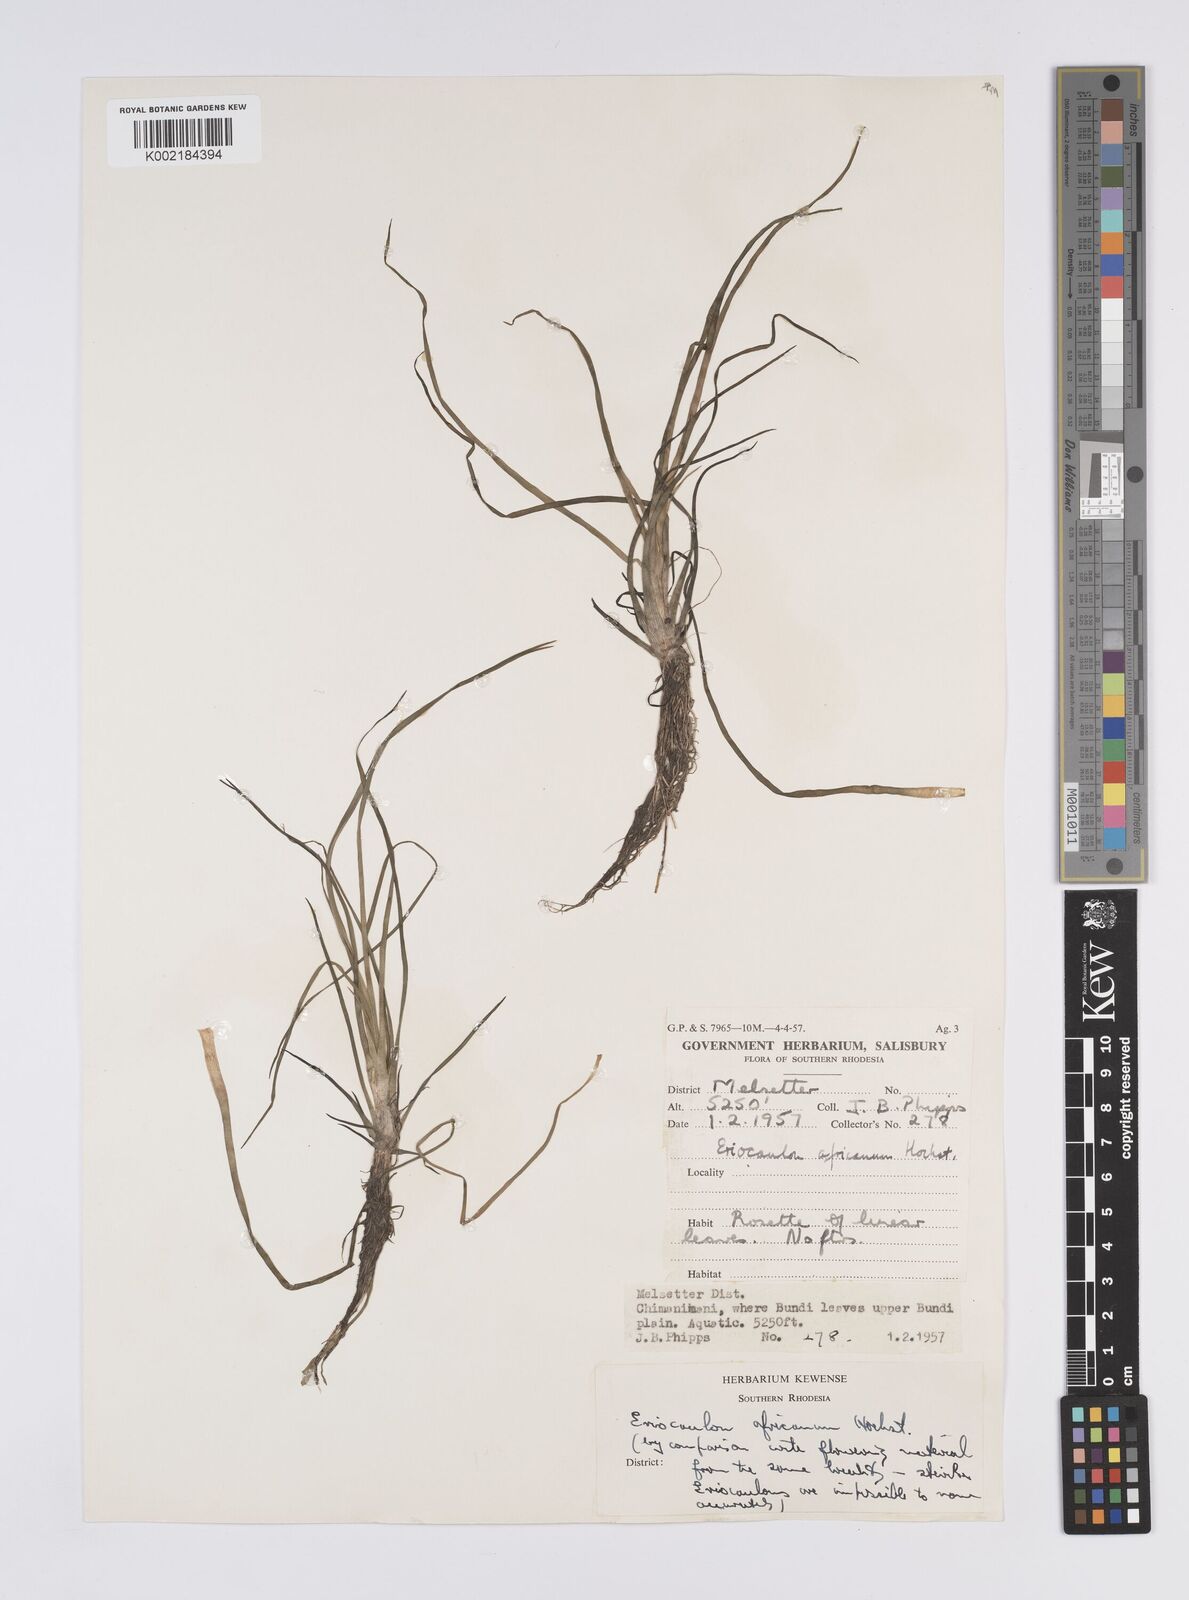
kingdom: Plantae
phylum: Tracheophyta
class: Liliopsida
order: Poales
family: Eriocaulaceae
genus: Eriocaulon
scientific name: Eriocaulon africanum
